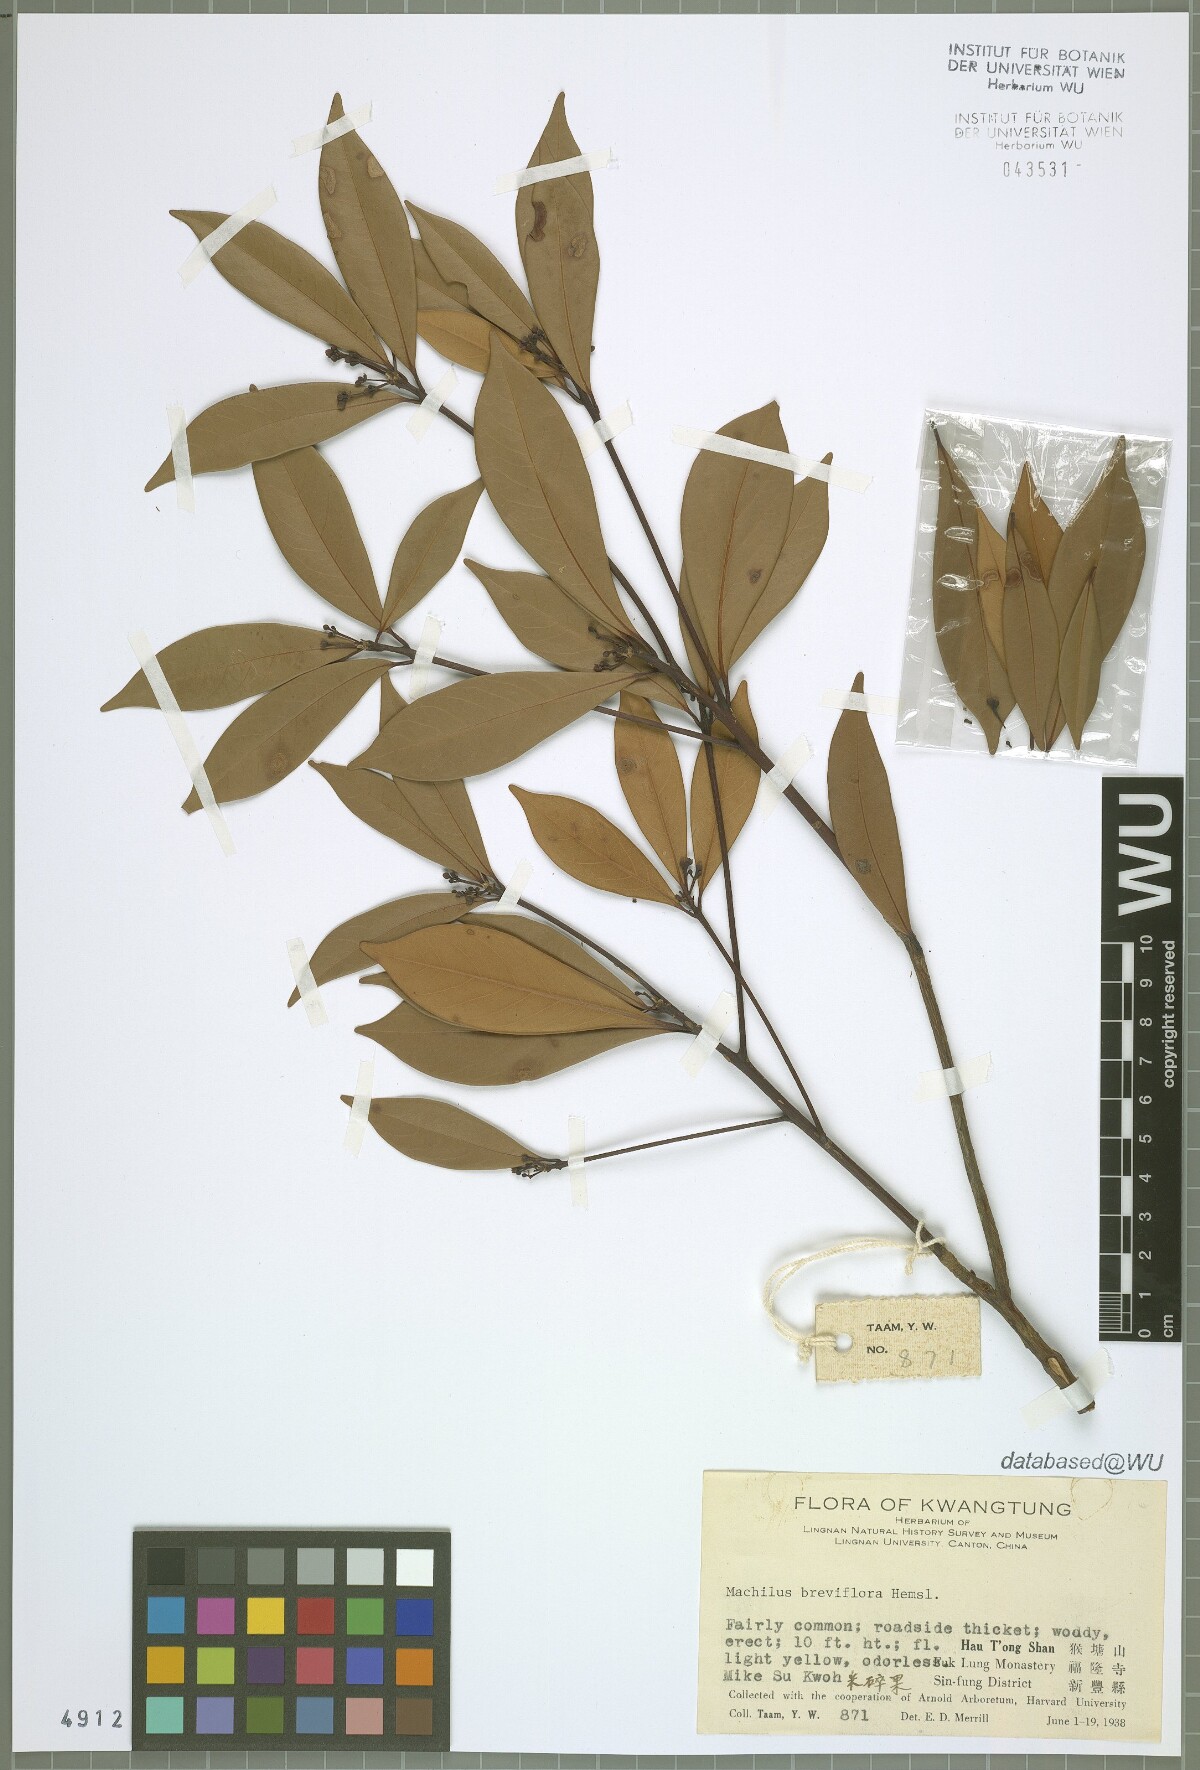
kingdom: Plantae
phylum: Tracheophyta
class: Magnoliopsida
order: Laurales
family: Lauraceae
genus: Machilus
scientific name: Machilus breviflora
